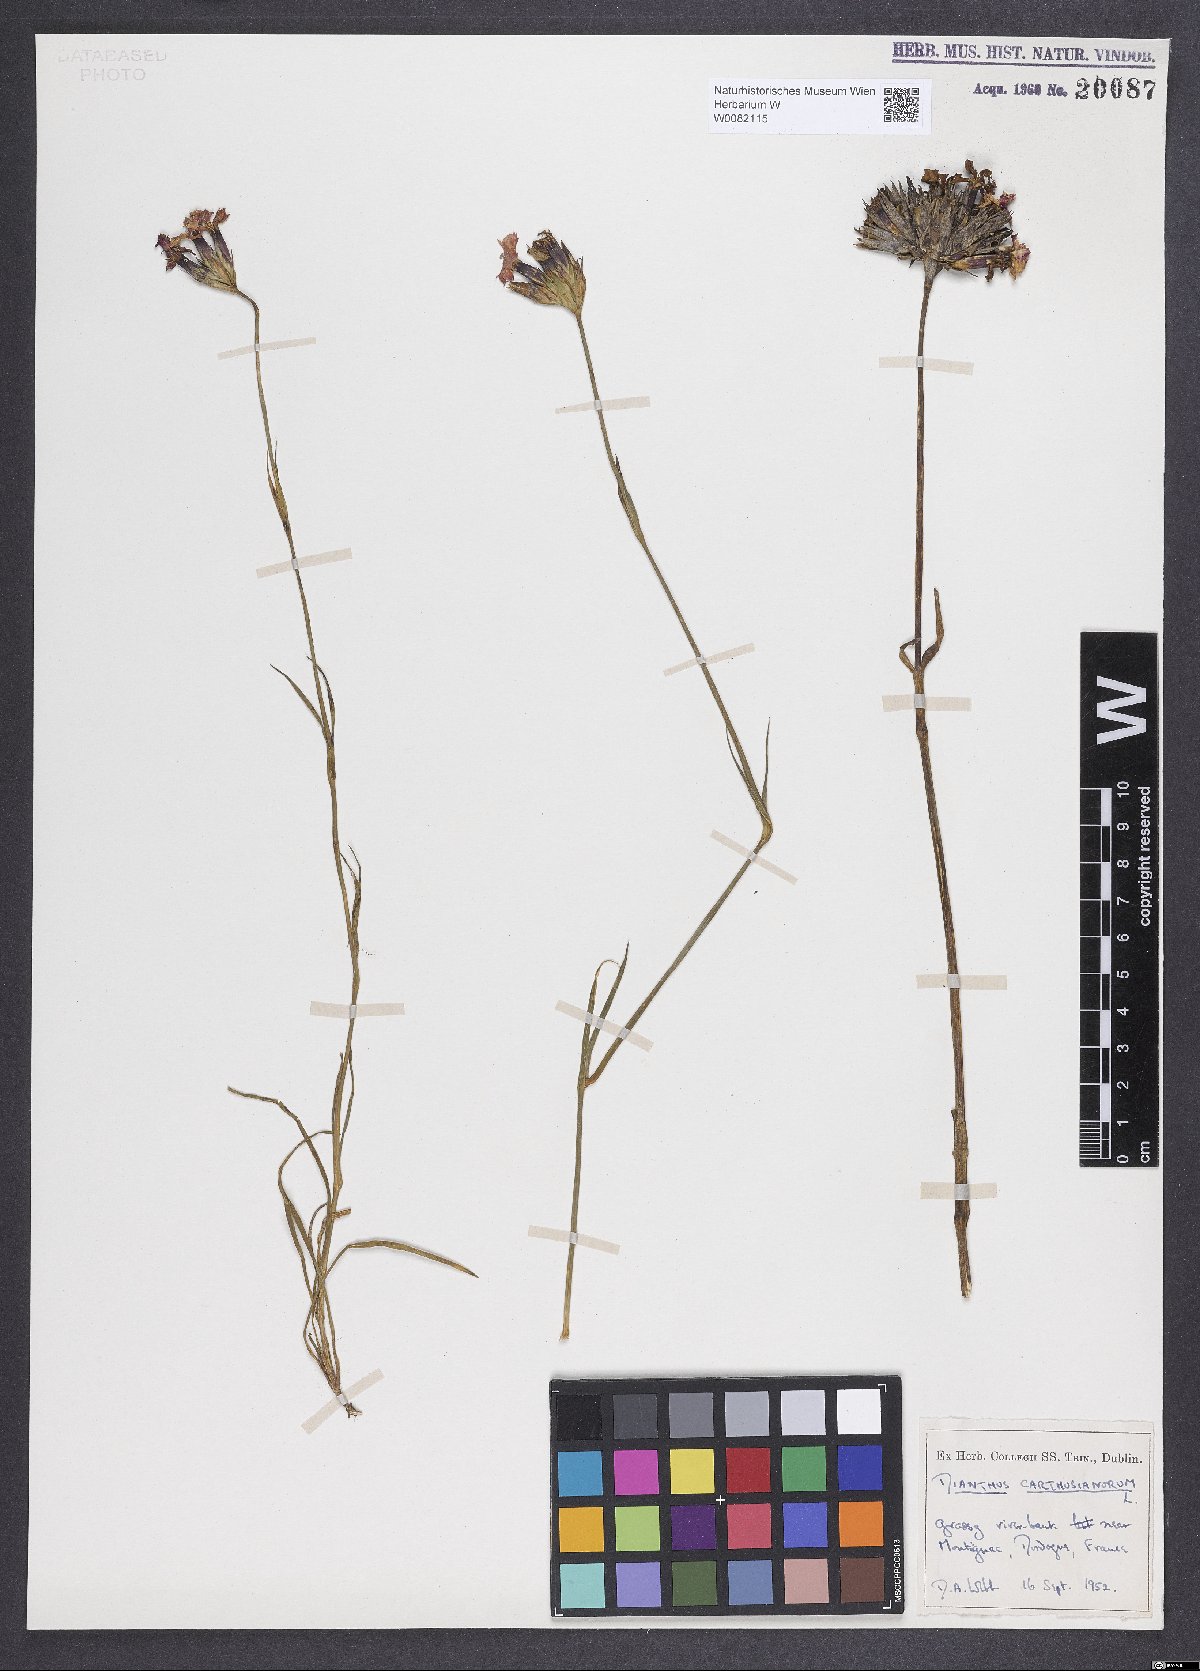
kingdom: Plantae
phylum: Tracheophyta
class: Magnoliopsida
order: Caryophyllales
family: Caryophyllaceae
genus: Dianthus
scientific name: Dianthus carthusianorum
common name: Carthusian pink
